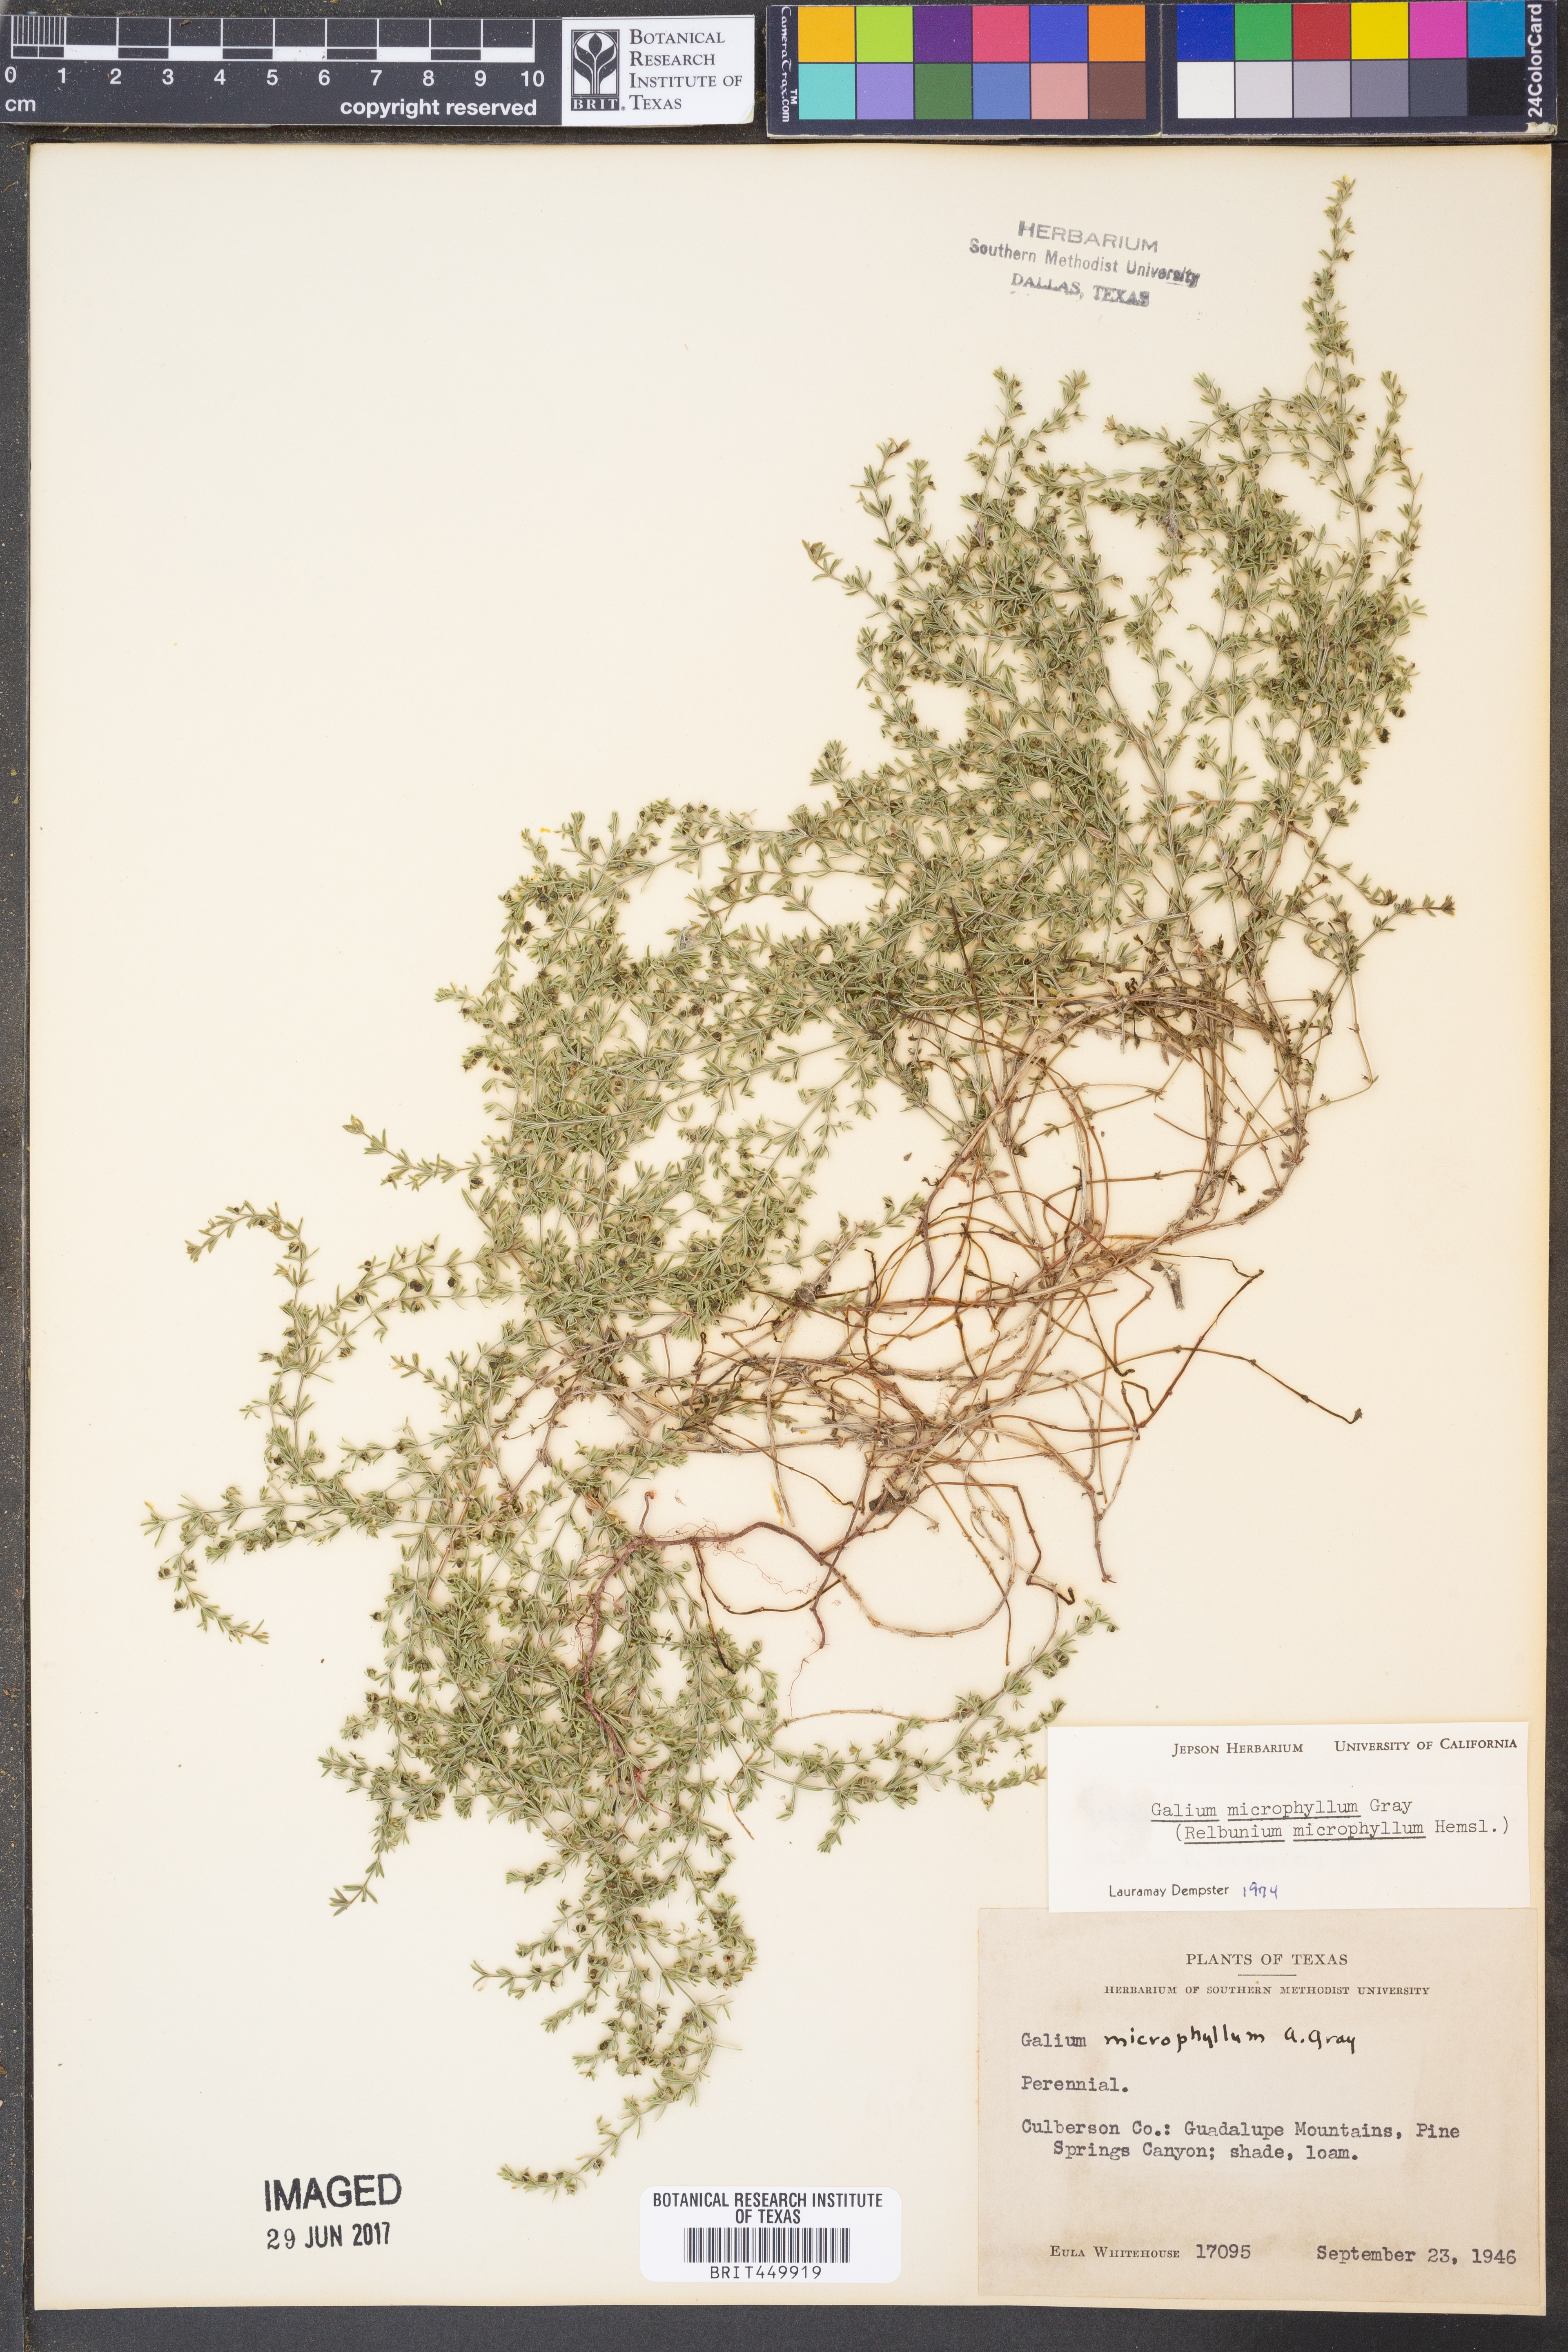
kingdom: Plantae
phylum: Tracheophyta
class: Magnoliopsida
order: Gentianales
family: Rubiaceae
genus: Galium
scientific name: Galium microphyllum
